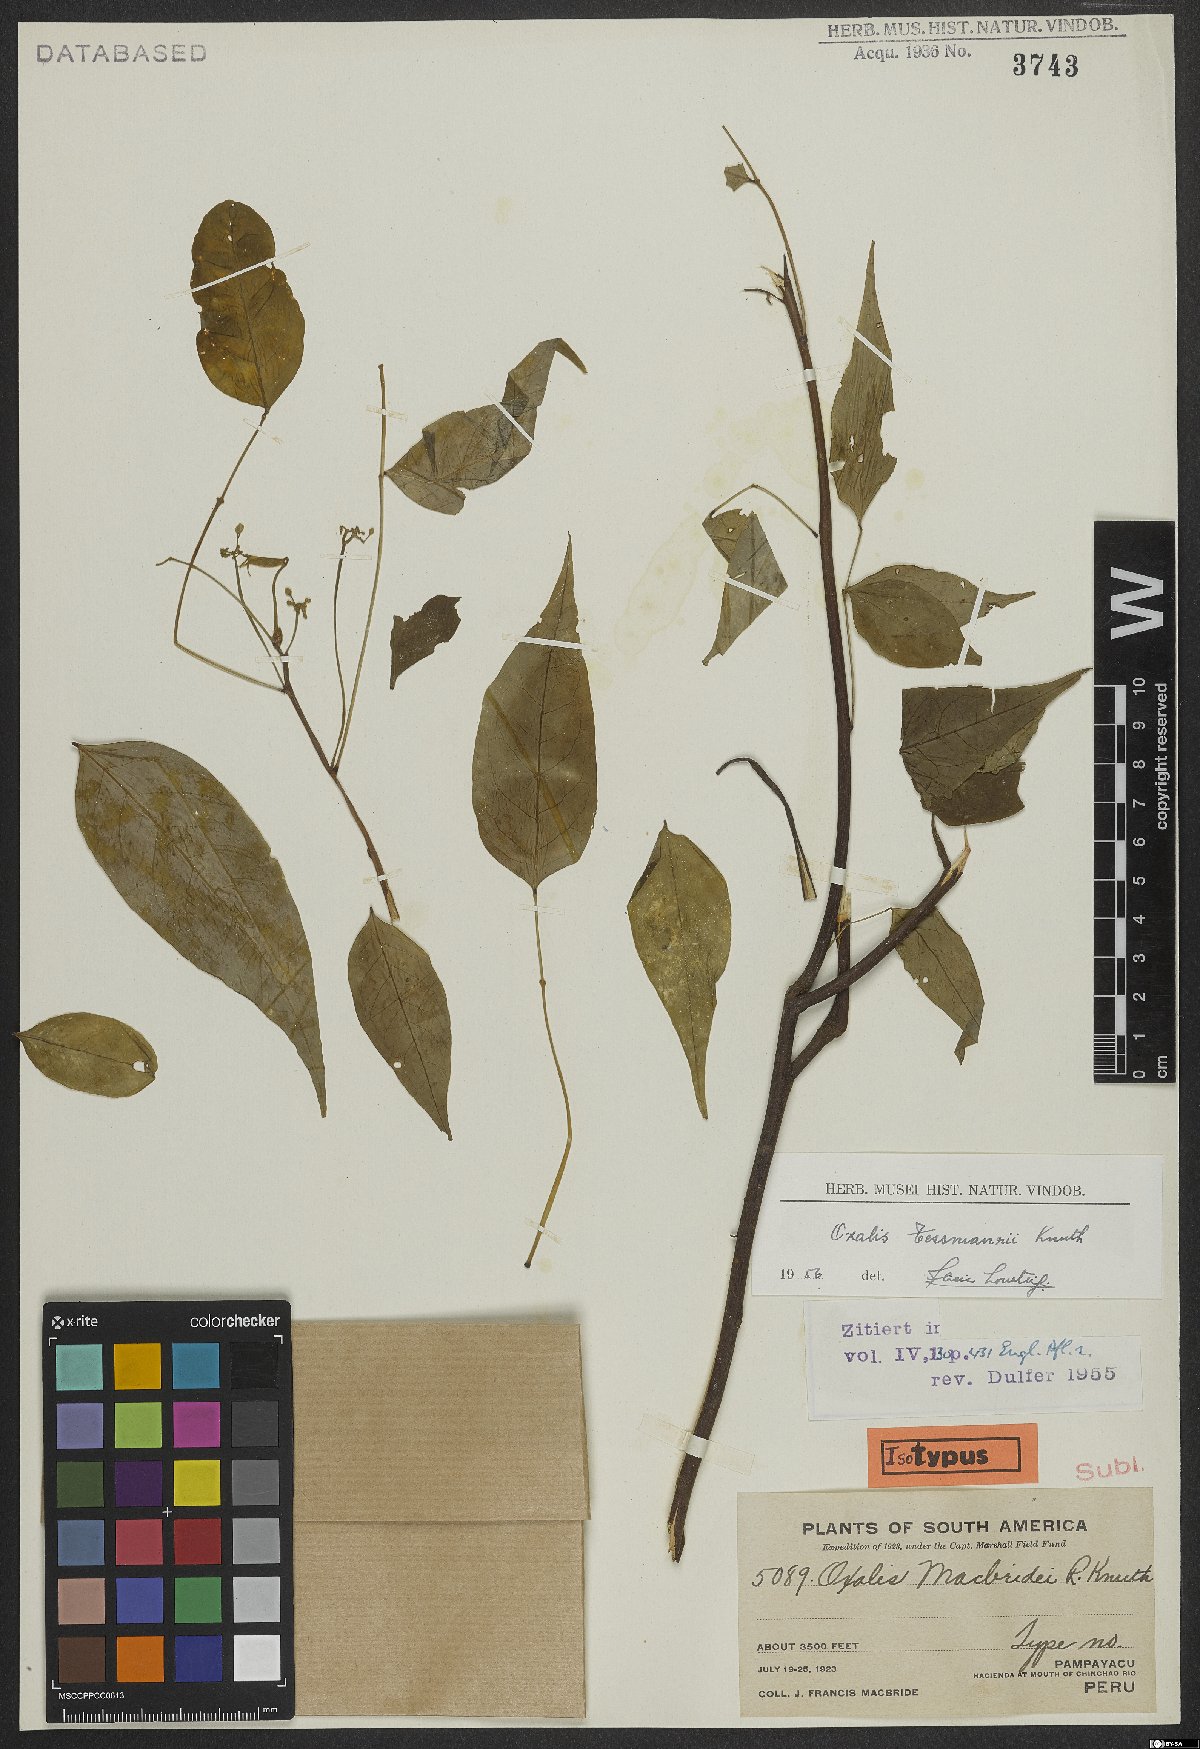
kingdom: Plantae
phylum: Tracheophyta
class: Magnoliopsida
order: Oxalidales
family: Oxalidaceae
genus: Oxalis
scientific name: Oxalis tessmannii
